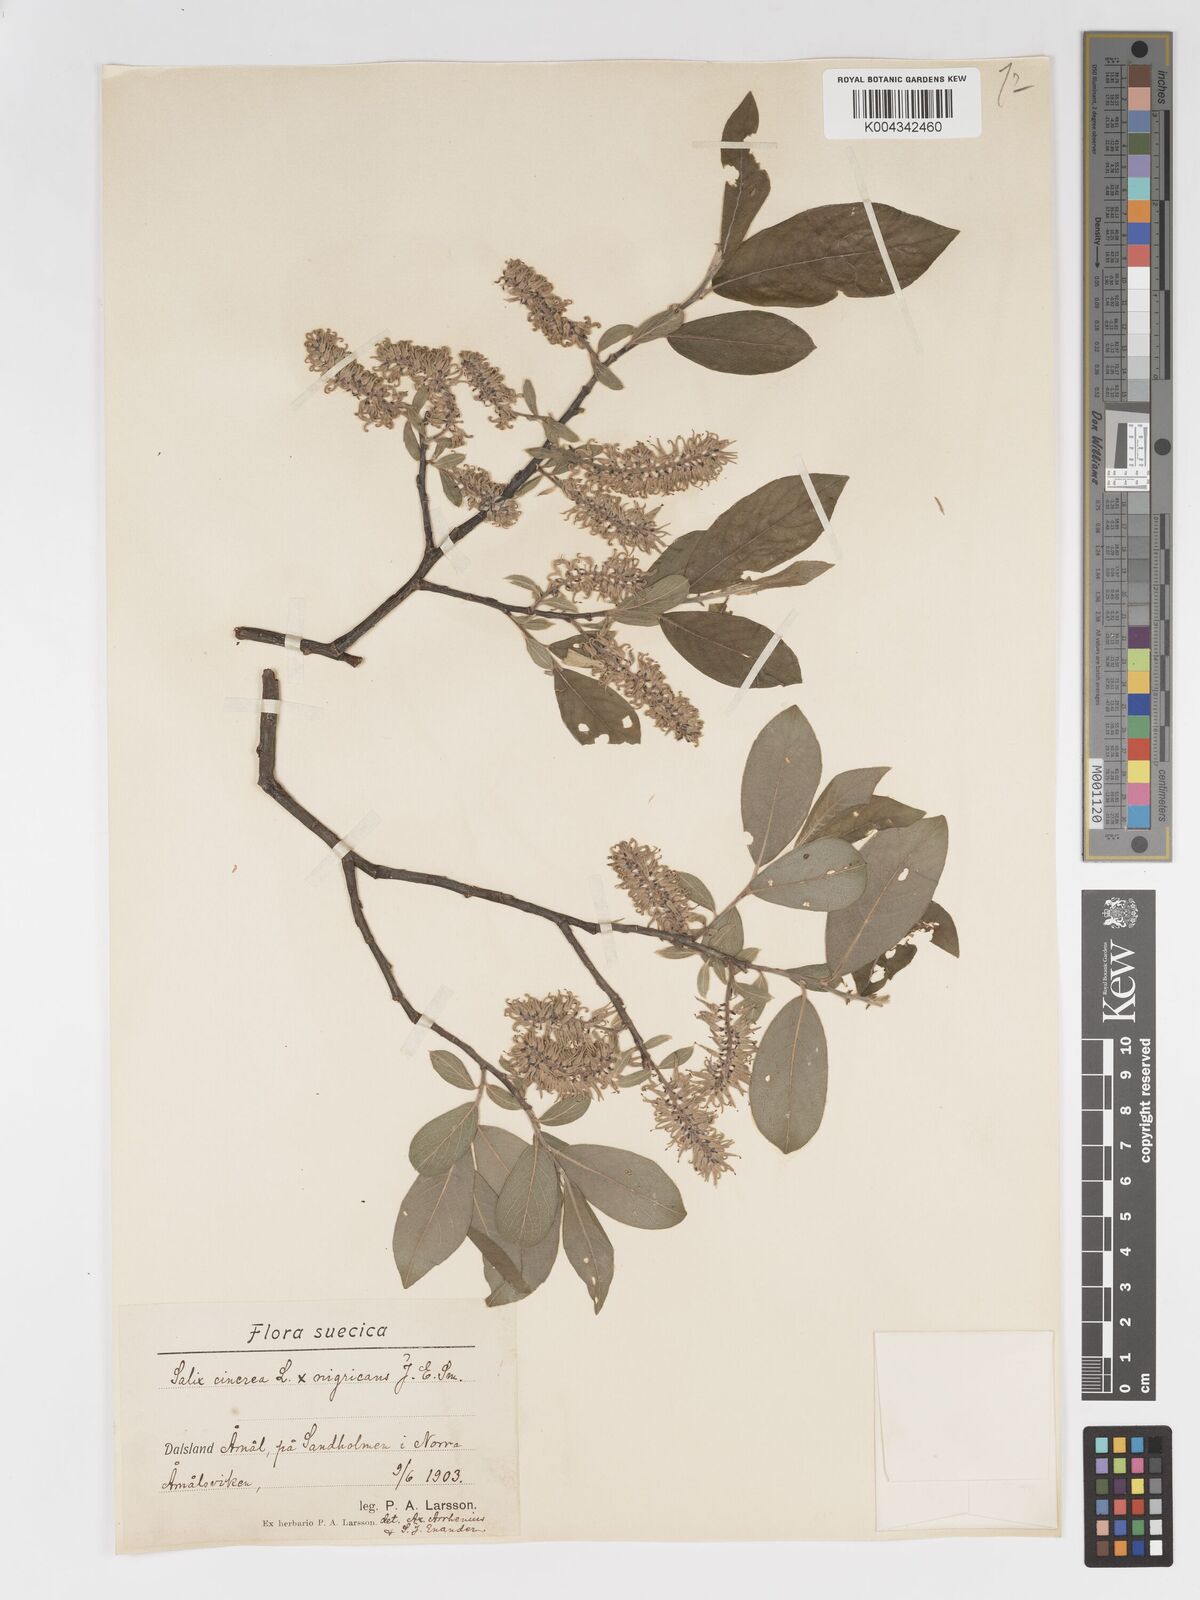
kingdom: Plantae
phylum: Tracheophyta
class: Magnoliopsida
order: Malpighiales
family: Salicaceae
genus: Salix
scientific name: Salix
